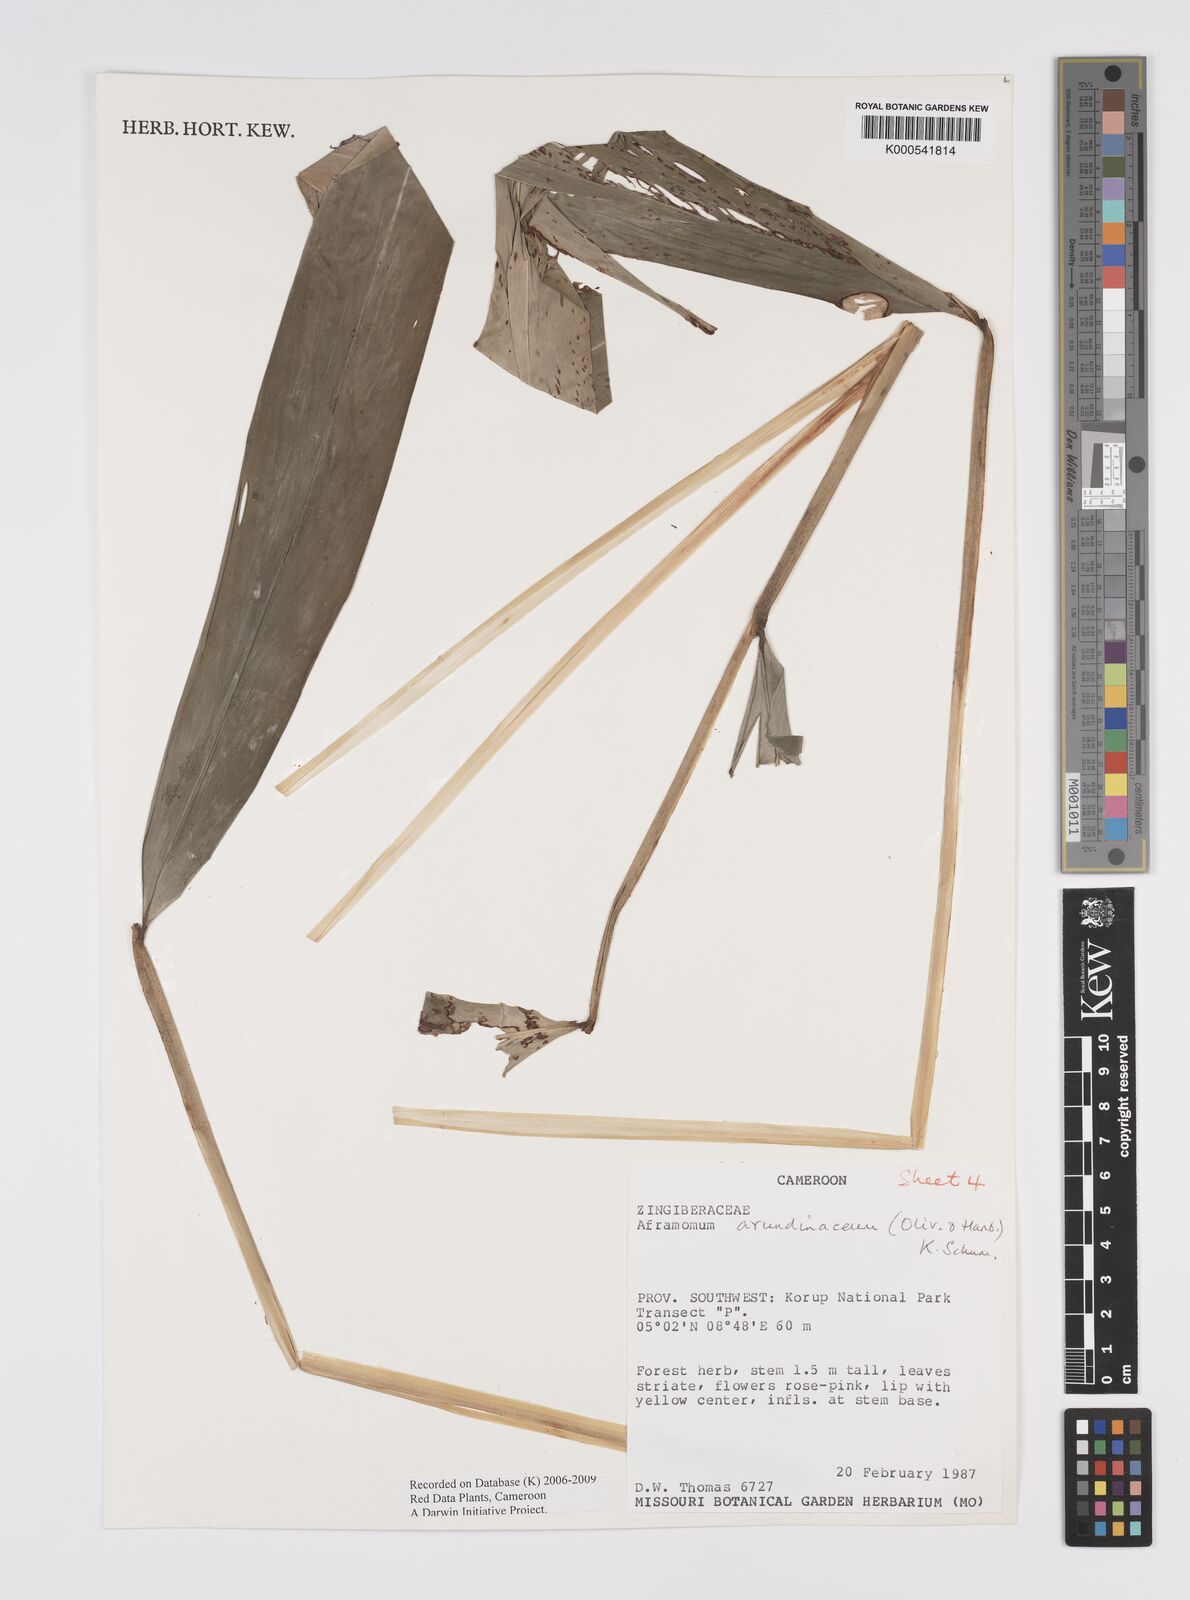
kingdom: Plantae
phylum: Tracheophyta
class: Liliopsida
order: Zingiberales
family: Zingiberaceae
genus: Aframomum
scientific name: Aframomum arundinaceum
